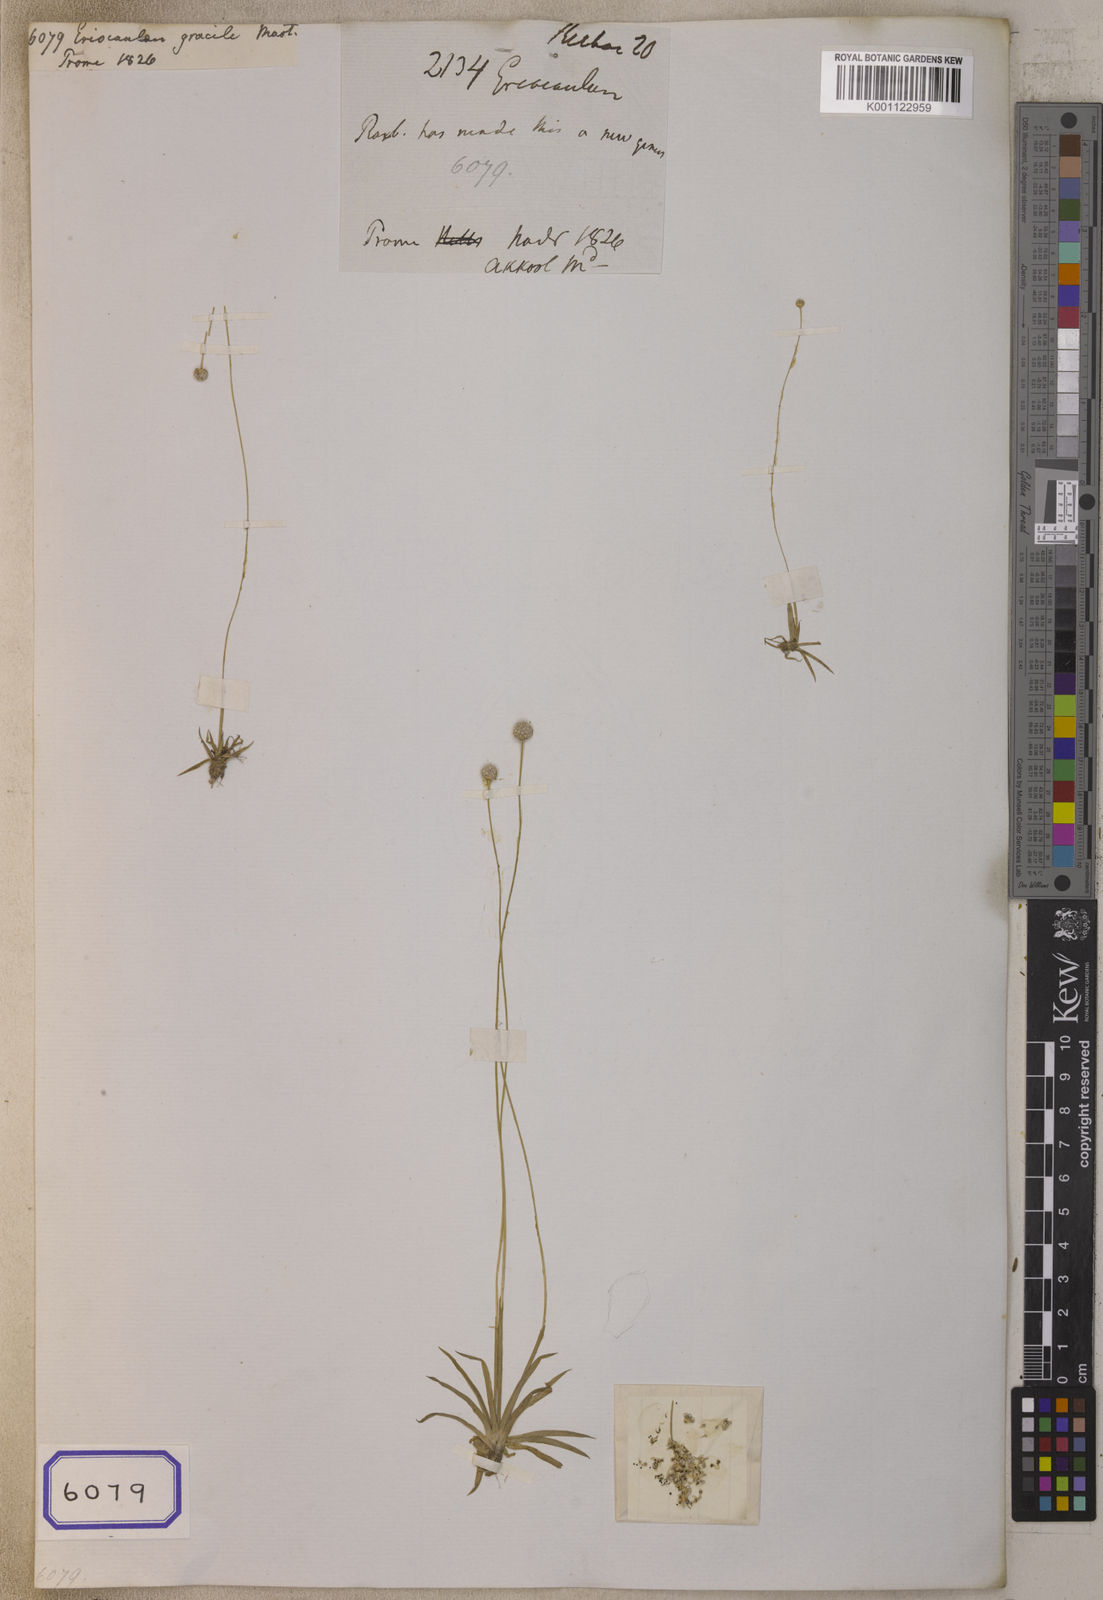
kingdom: Plantae
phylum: Tracheophyta
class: Liliopsida
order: Poales
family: Eriocaulaceae
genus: Eriocaulon
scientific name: Eriocaulon infirmum
